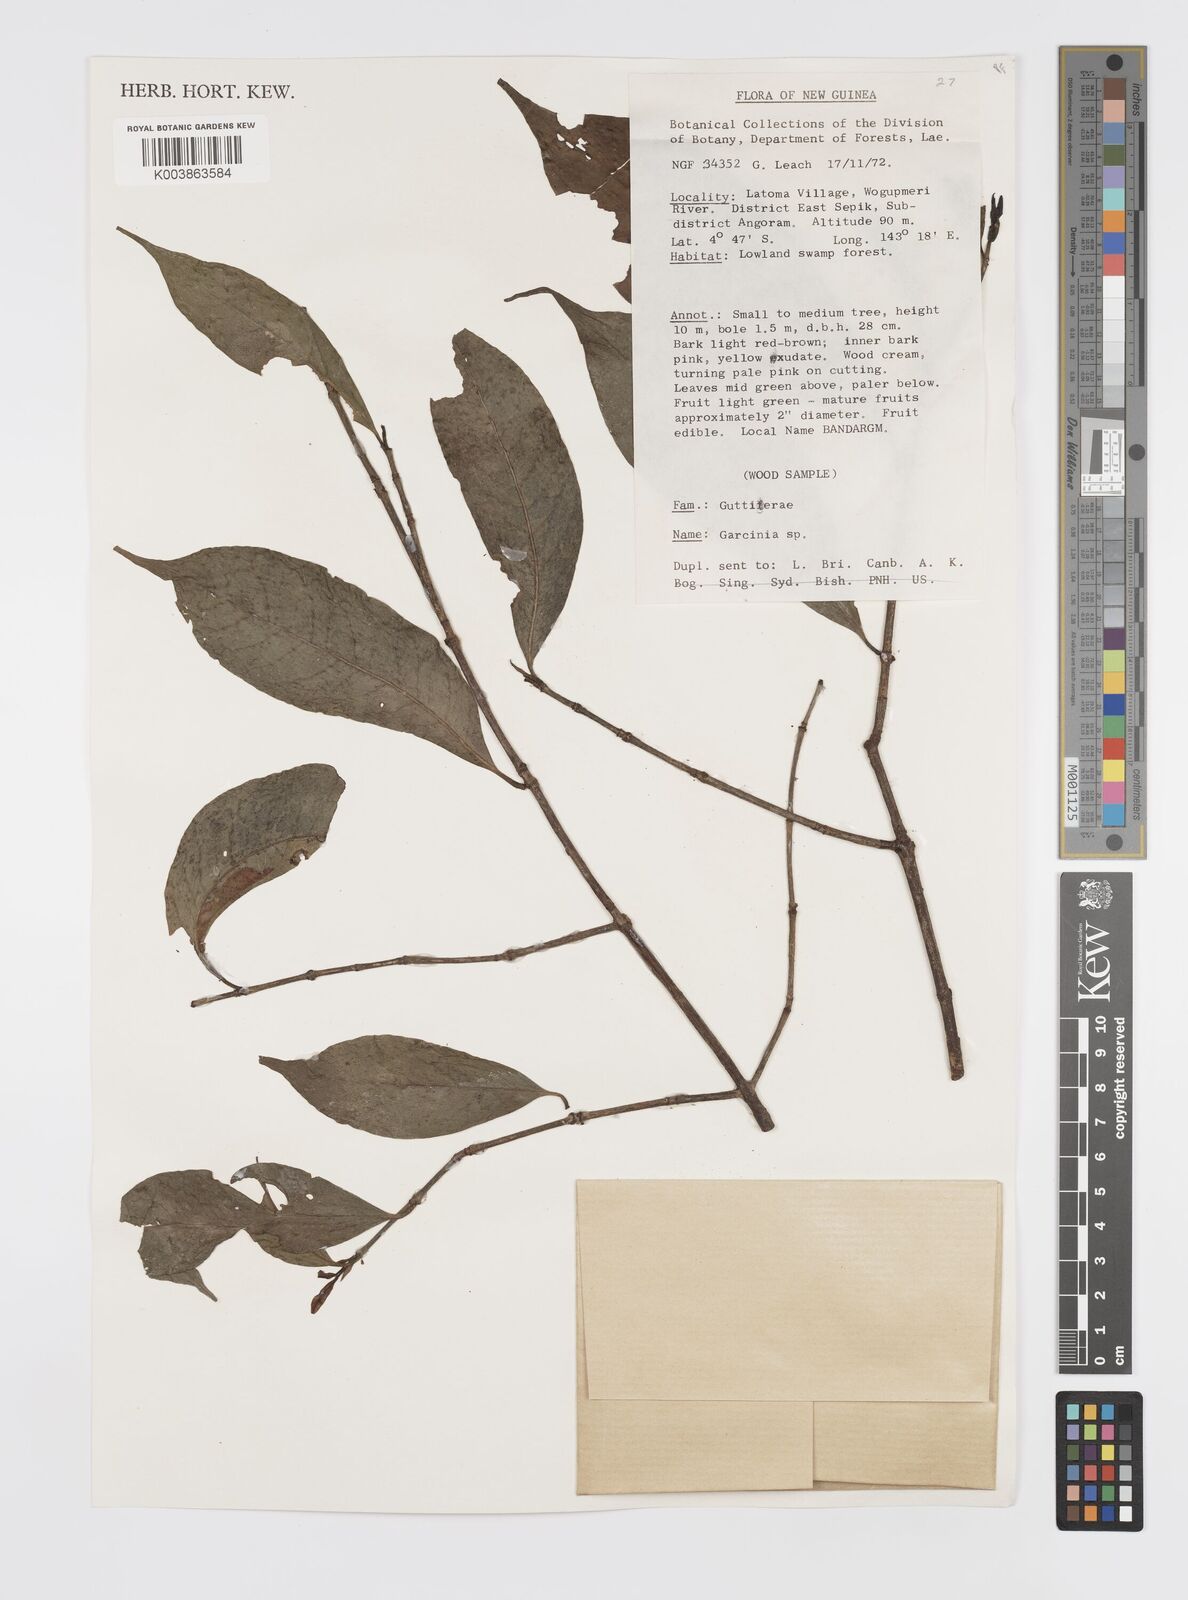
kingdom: Plantae
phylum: Tracheophyta
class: Magnoliopsida
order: Malpighiales
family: Clusiaceae
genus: Garcinia
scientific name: Garcinia
